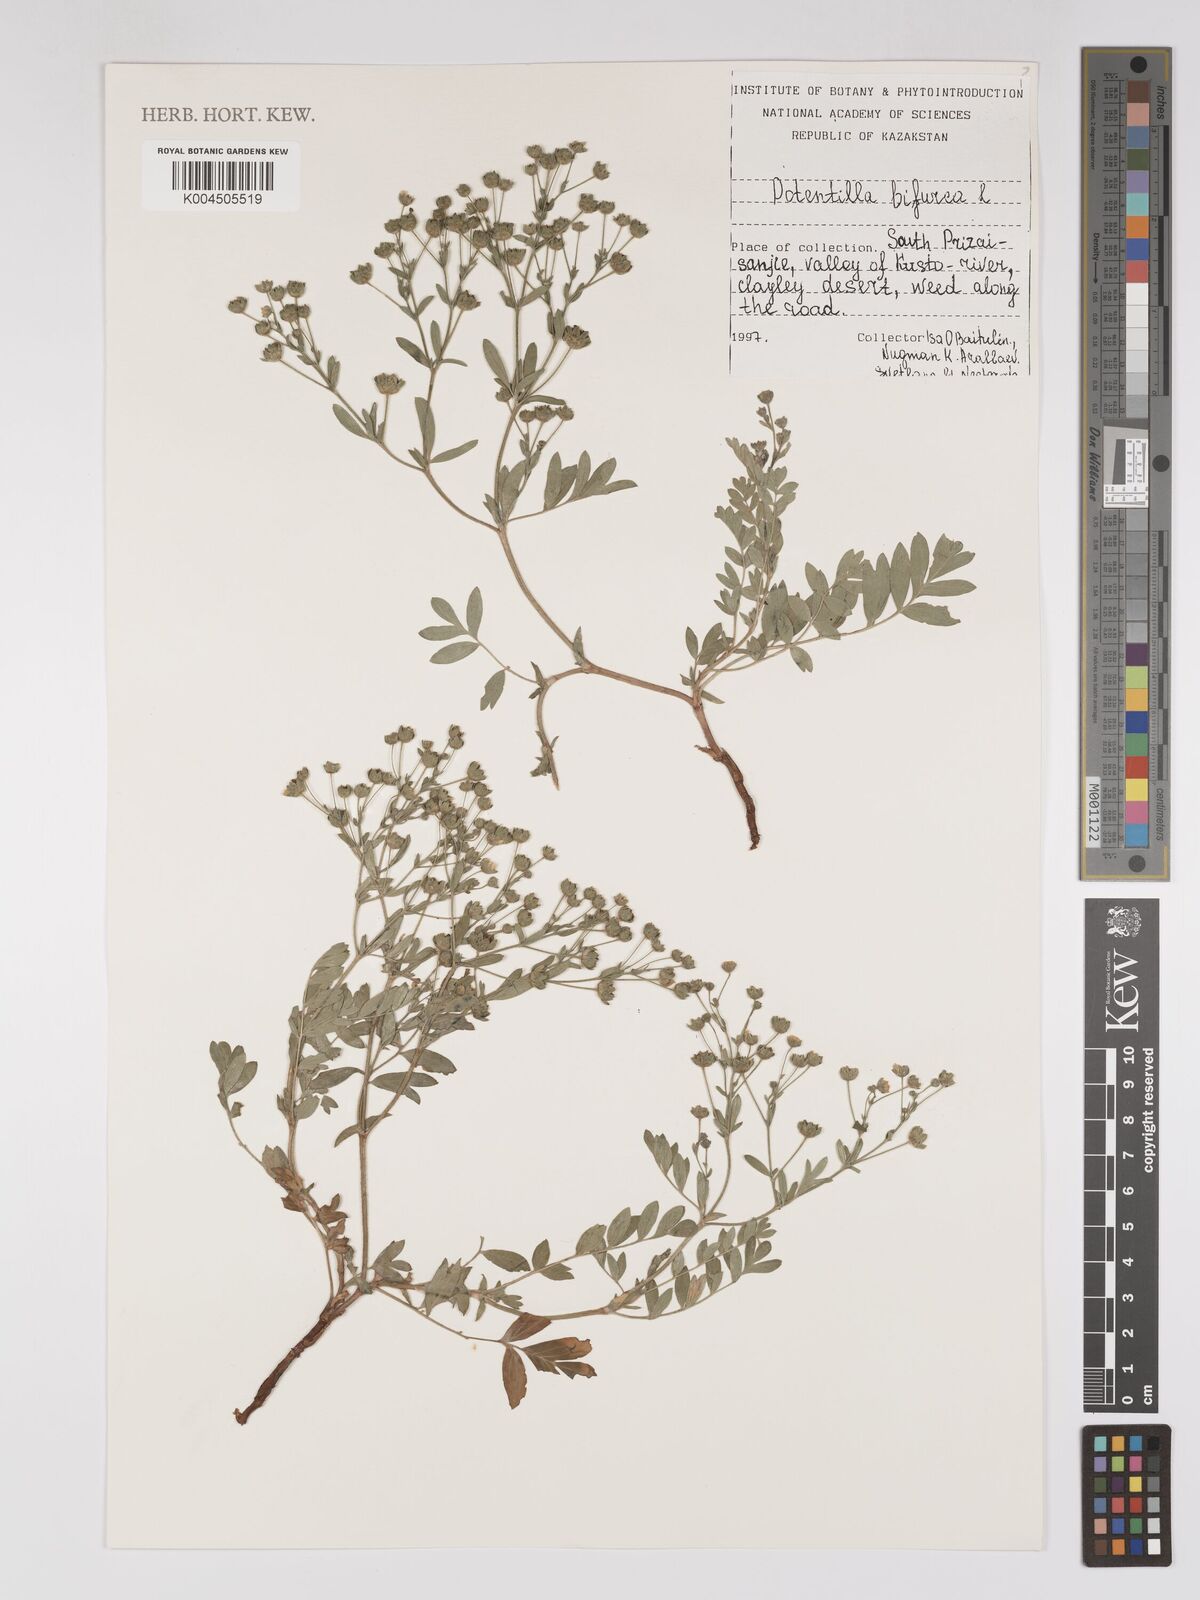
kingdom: Plantae
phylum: Tracheophyta
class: Magnoliopsida
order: Rosales
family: Rosaceae
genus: Sibbaldianthe
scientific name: Sibbaldianthe bifurca
